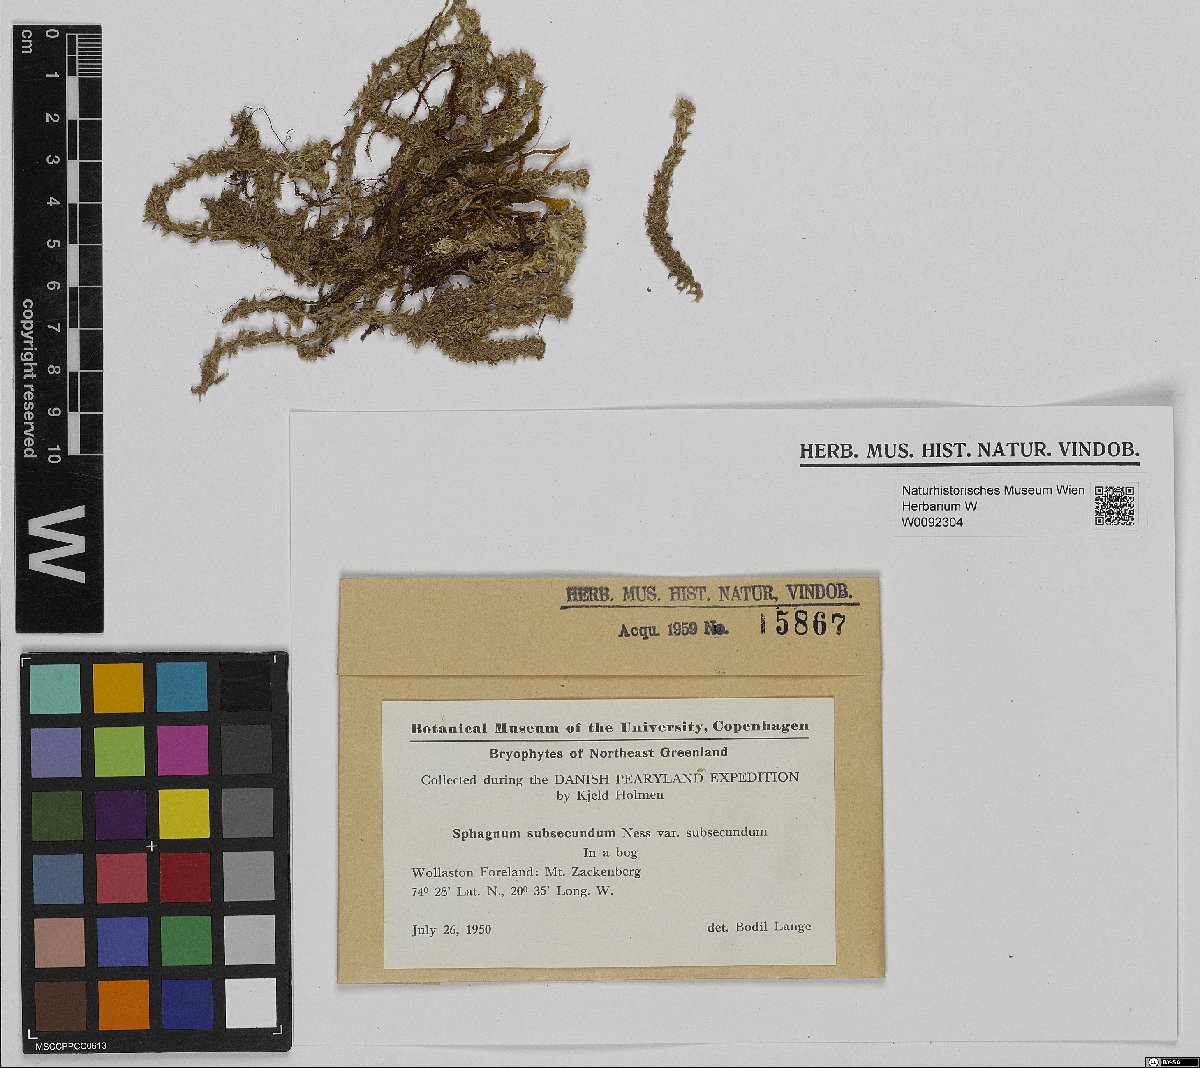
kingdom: Plantae
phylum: Bryophyta
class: Sphagnopsida
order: Sphagnales
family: Sphagnaceae
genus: Sphagnum
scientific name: Sphagnum subsecundum
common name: Orange peat moss
